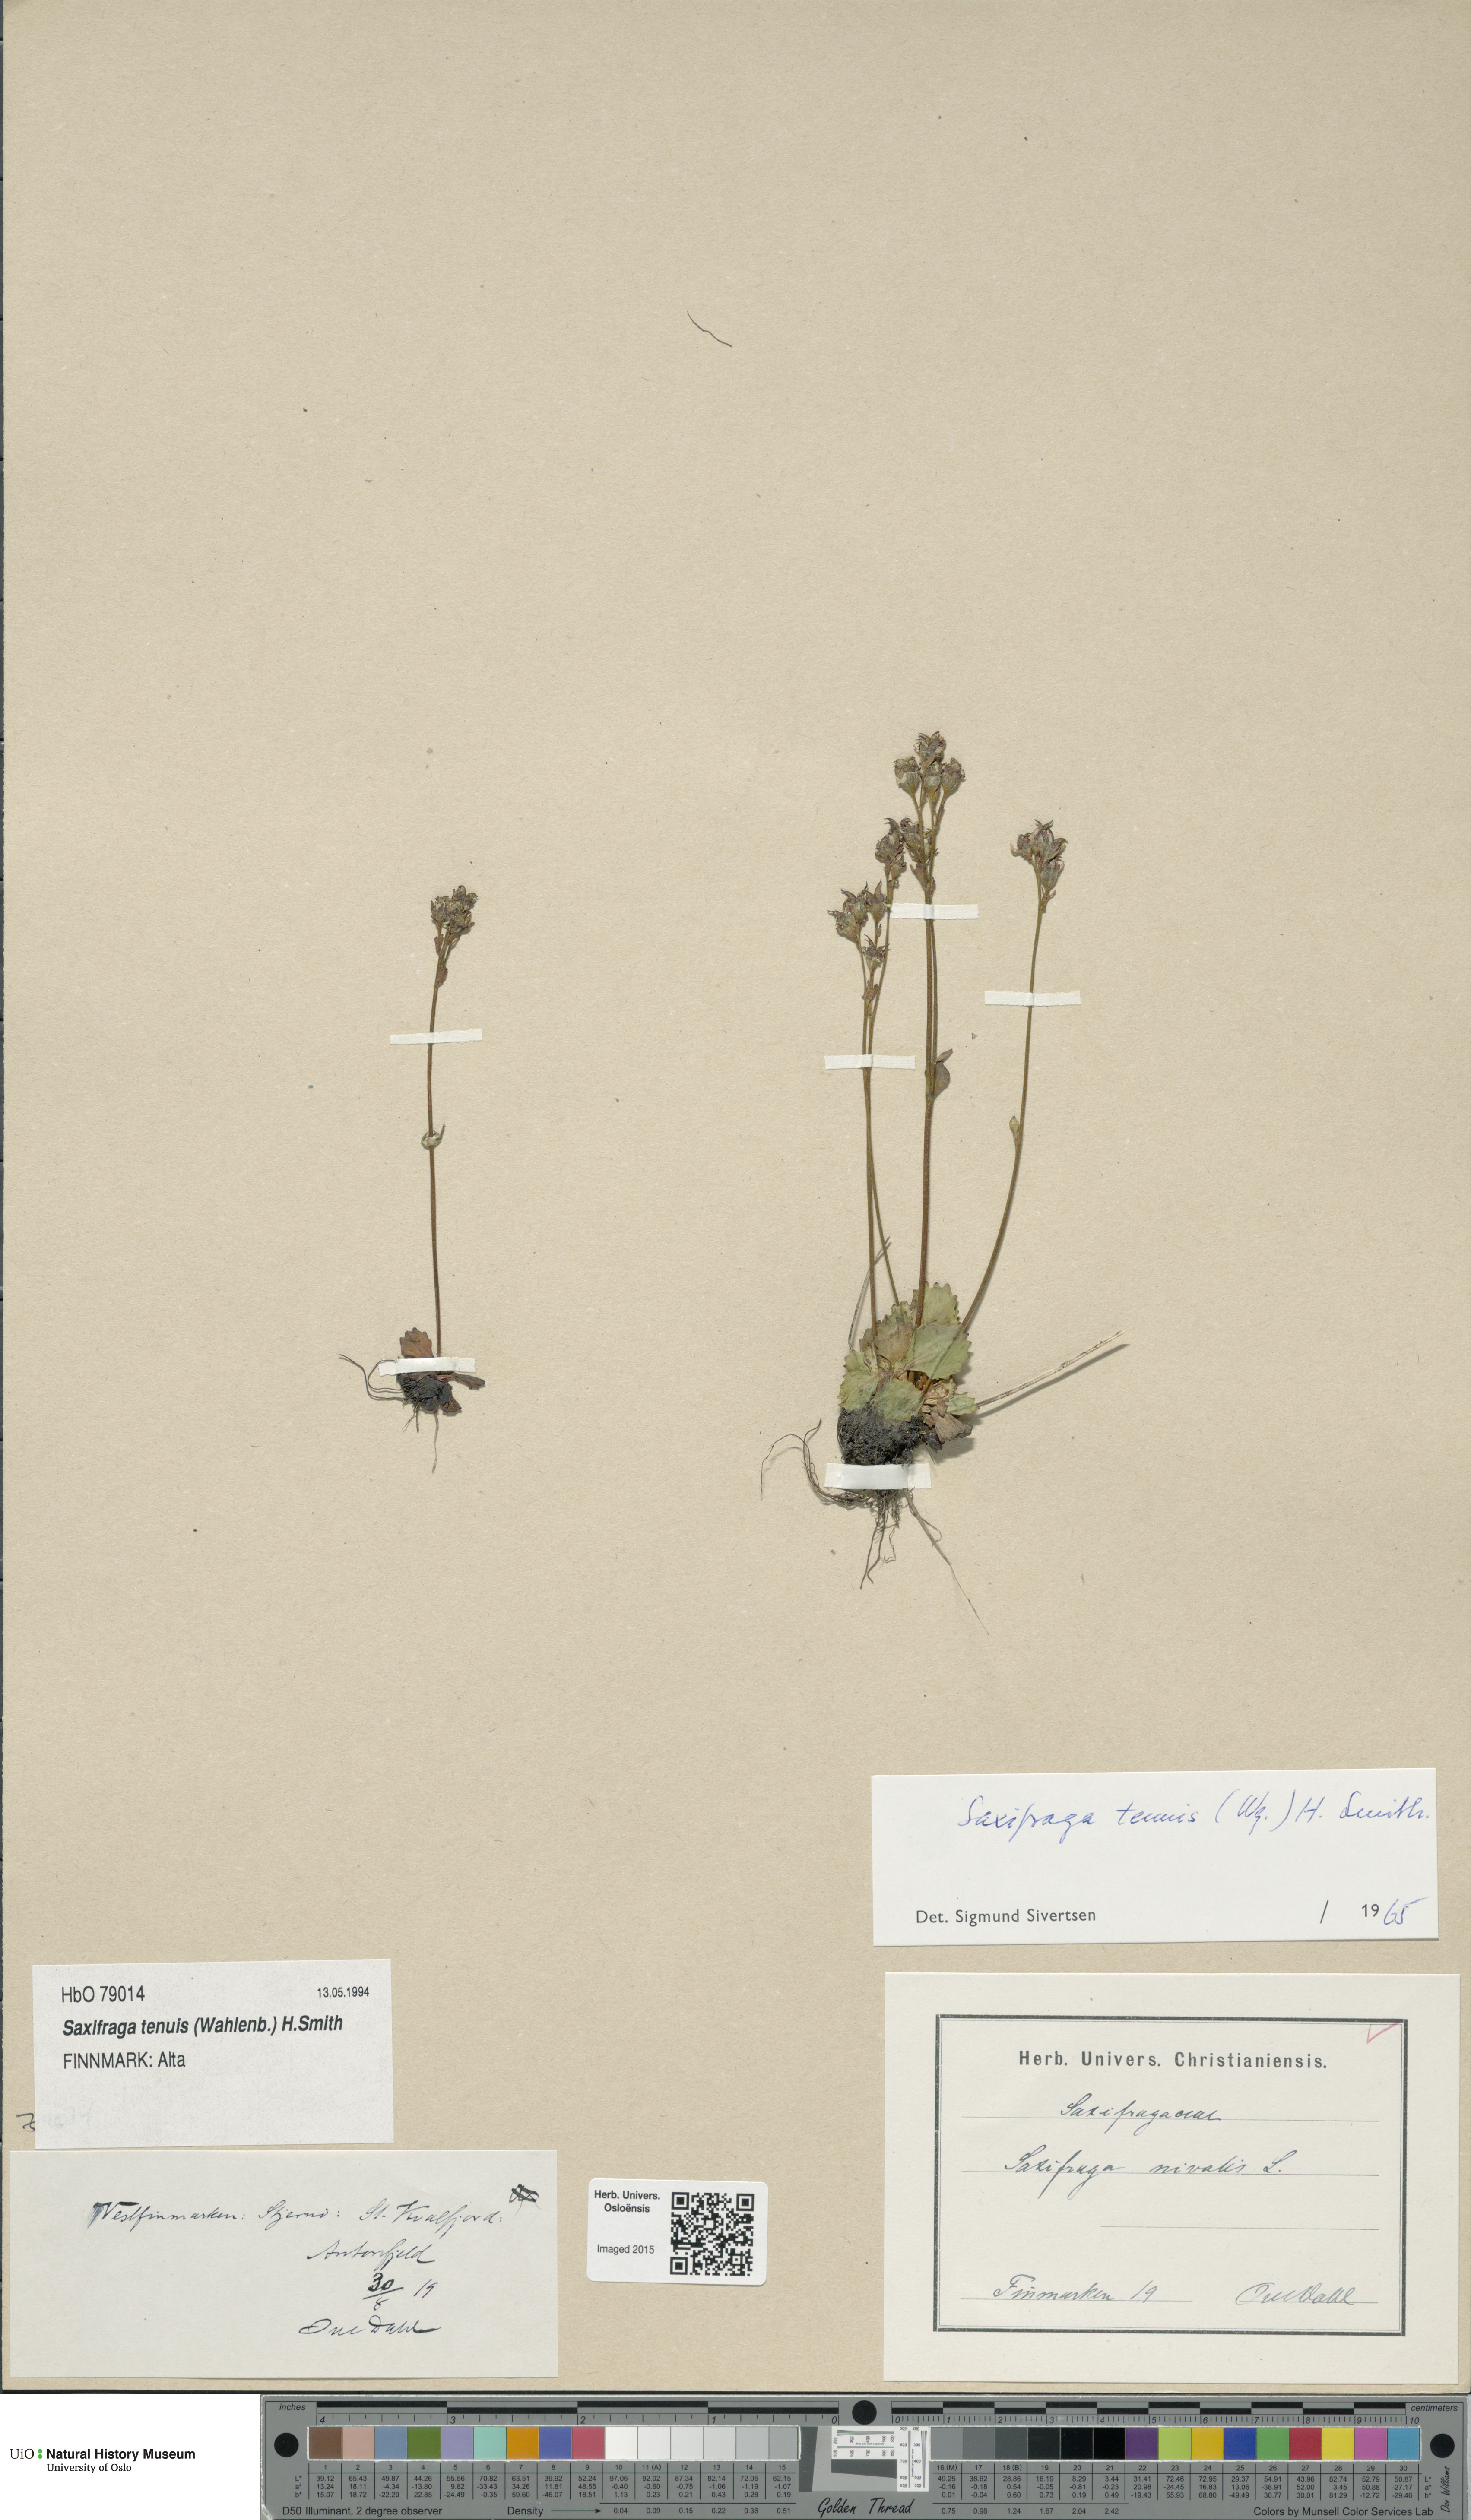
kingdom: Plantae
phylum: Tracheophyta
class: Magnoliopsida
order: Saxifragales
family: Saxifragaceae
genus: Micranthes
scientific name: Micranthes tenuis
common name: Ottertail pass saxifrage
